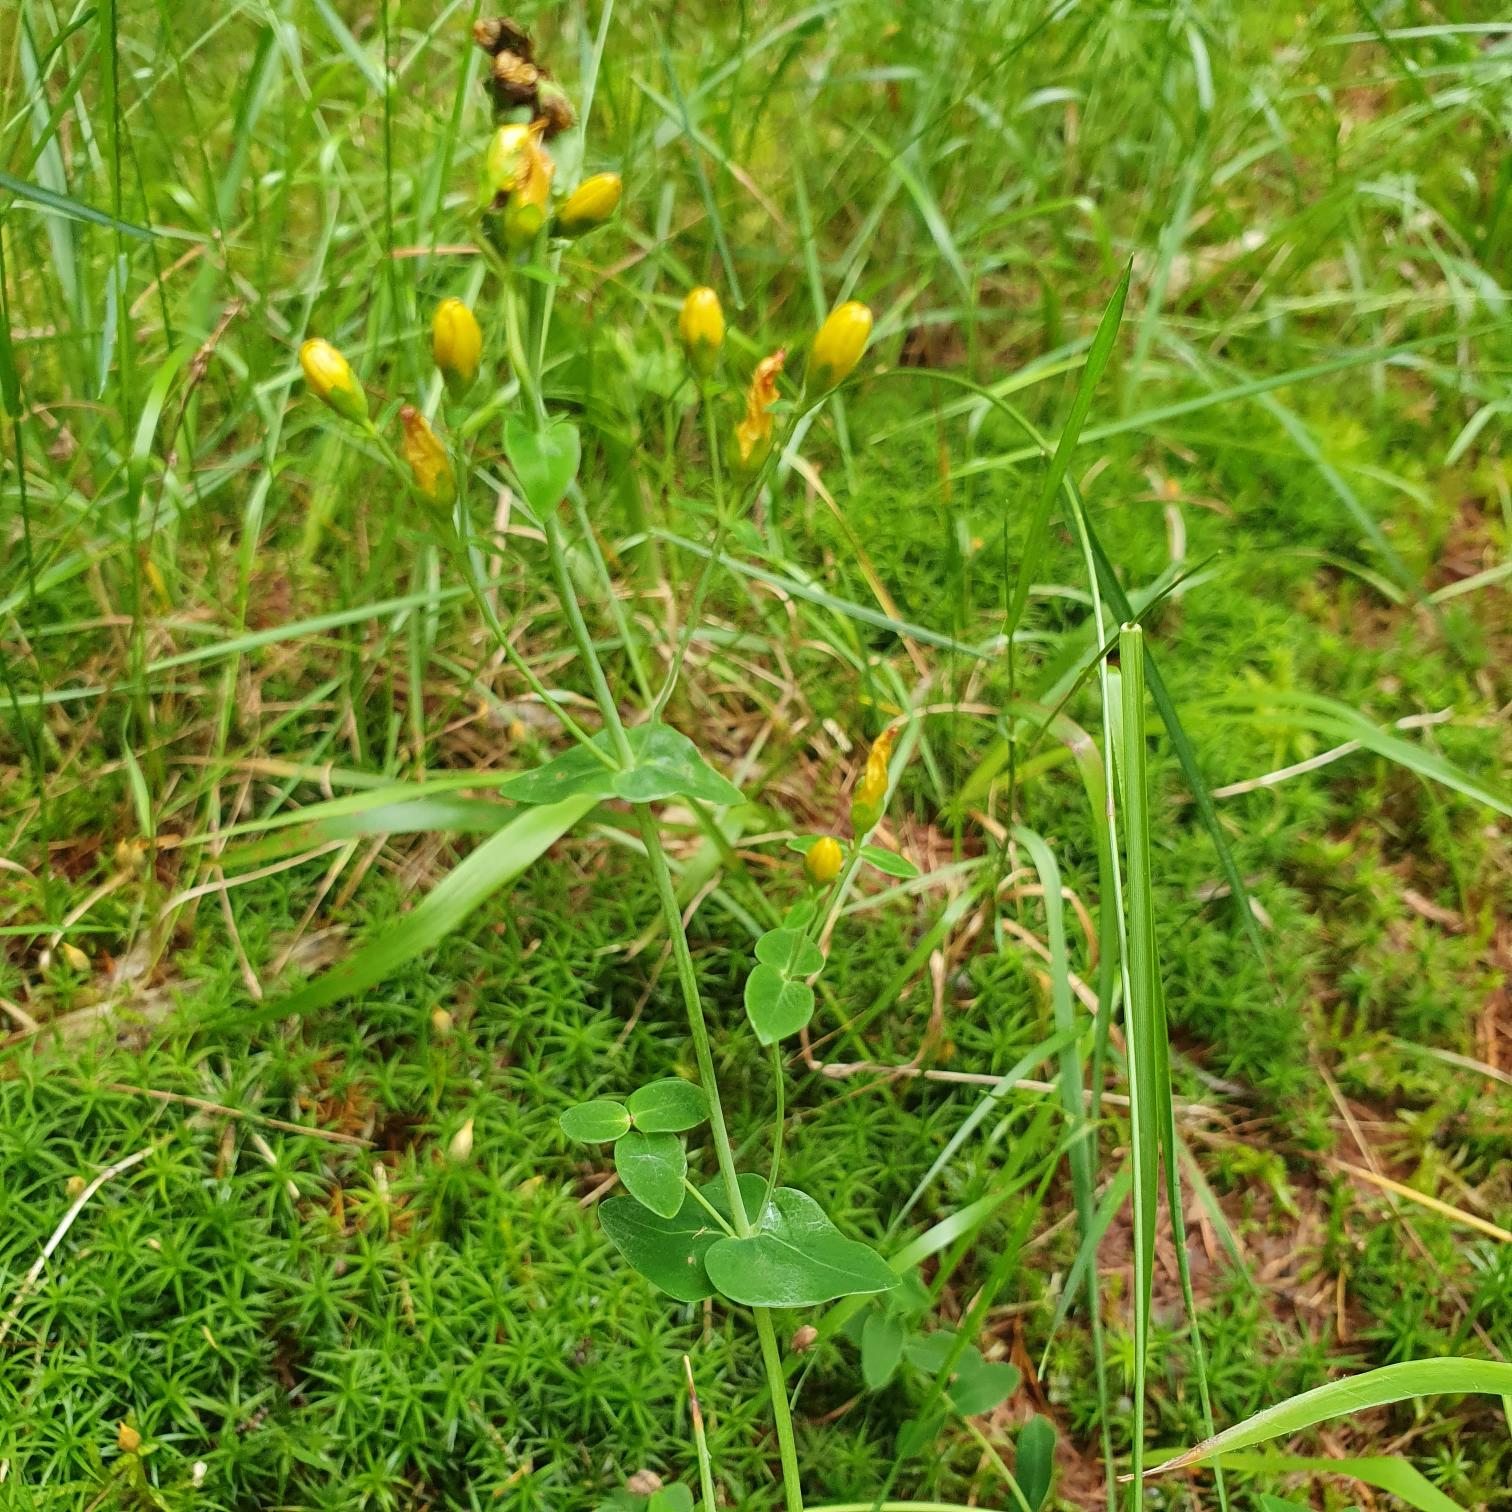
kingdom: Plantae
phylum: Tracheophyta
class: Magnoliopsida
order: Malpighiales
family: Hypericaceae
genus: Hypericum
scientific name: Hypericum pulchrum
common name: Smuk perikon
